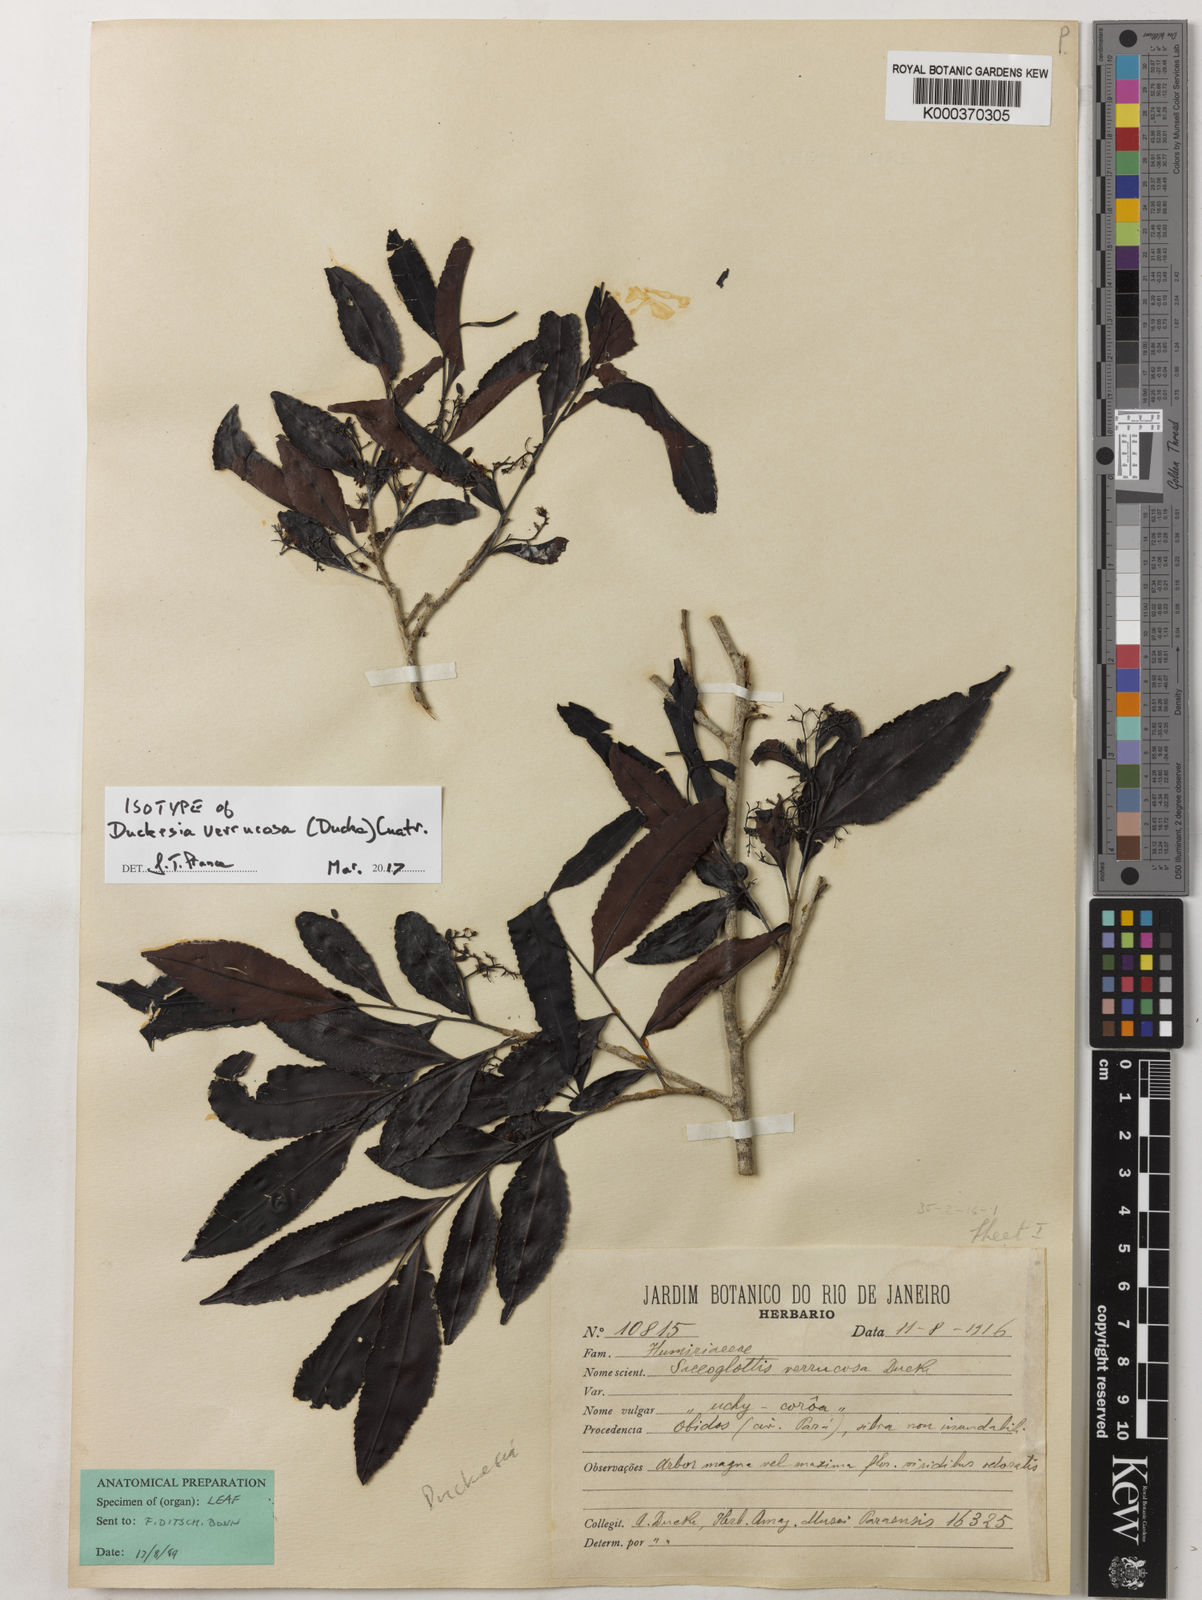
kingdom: Plantae
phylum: Tracheophyta
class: Magnoliopsida
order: Malpighiales
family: Humiriaceae
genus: Duckesia
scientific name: Duckesia verrucosa
